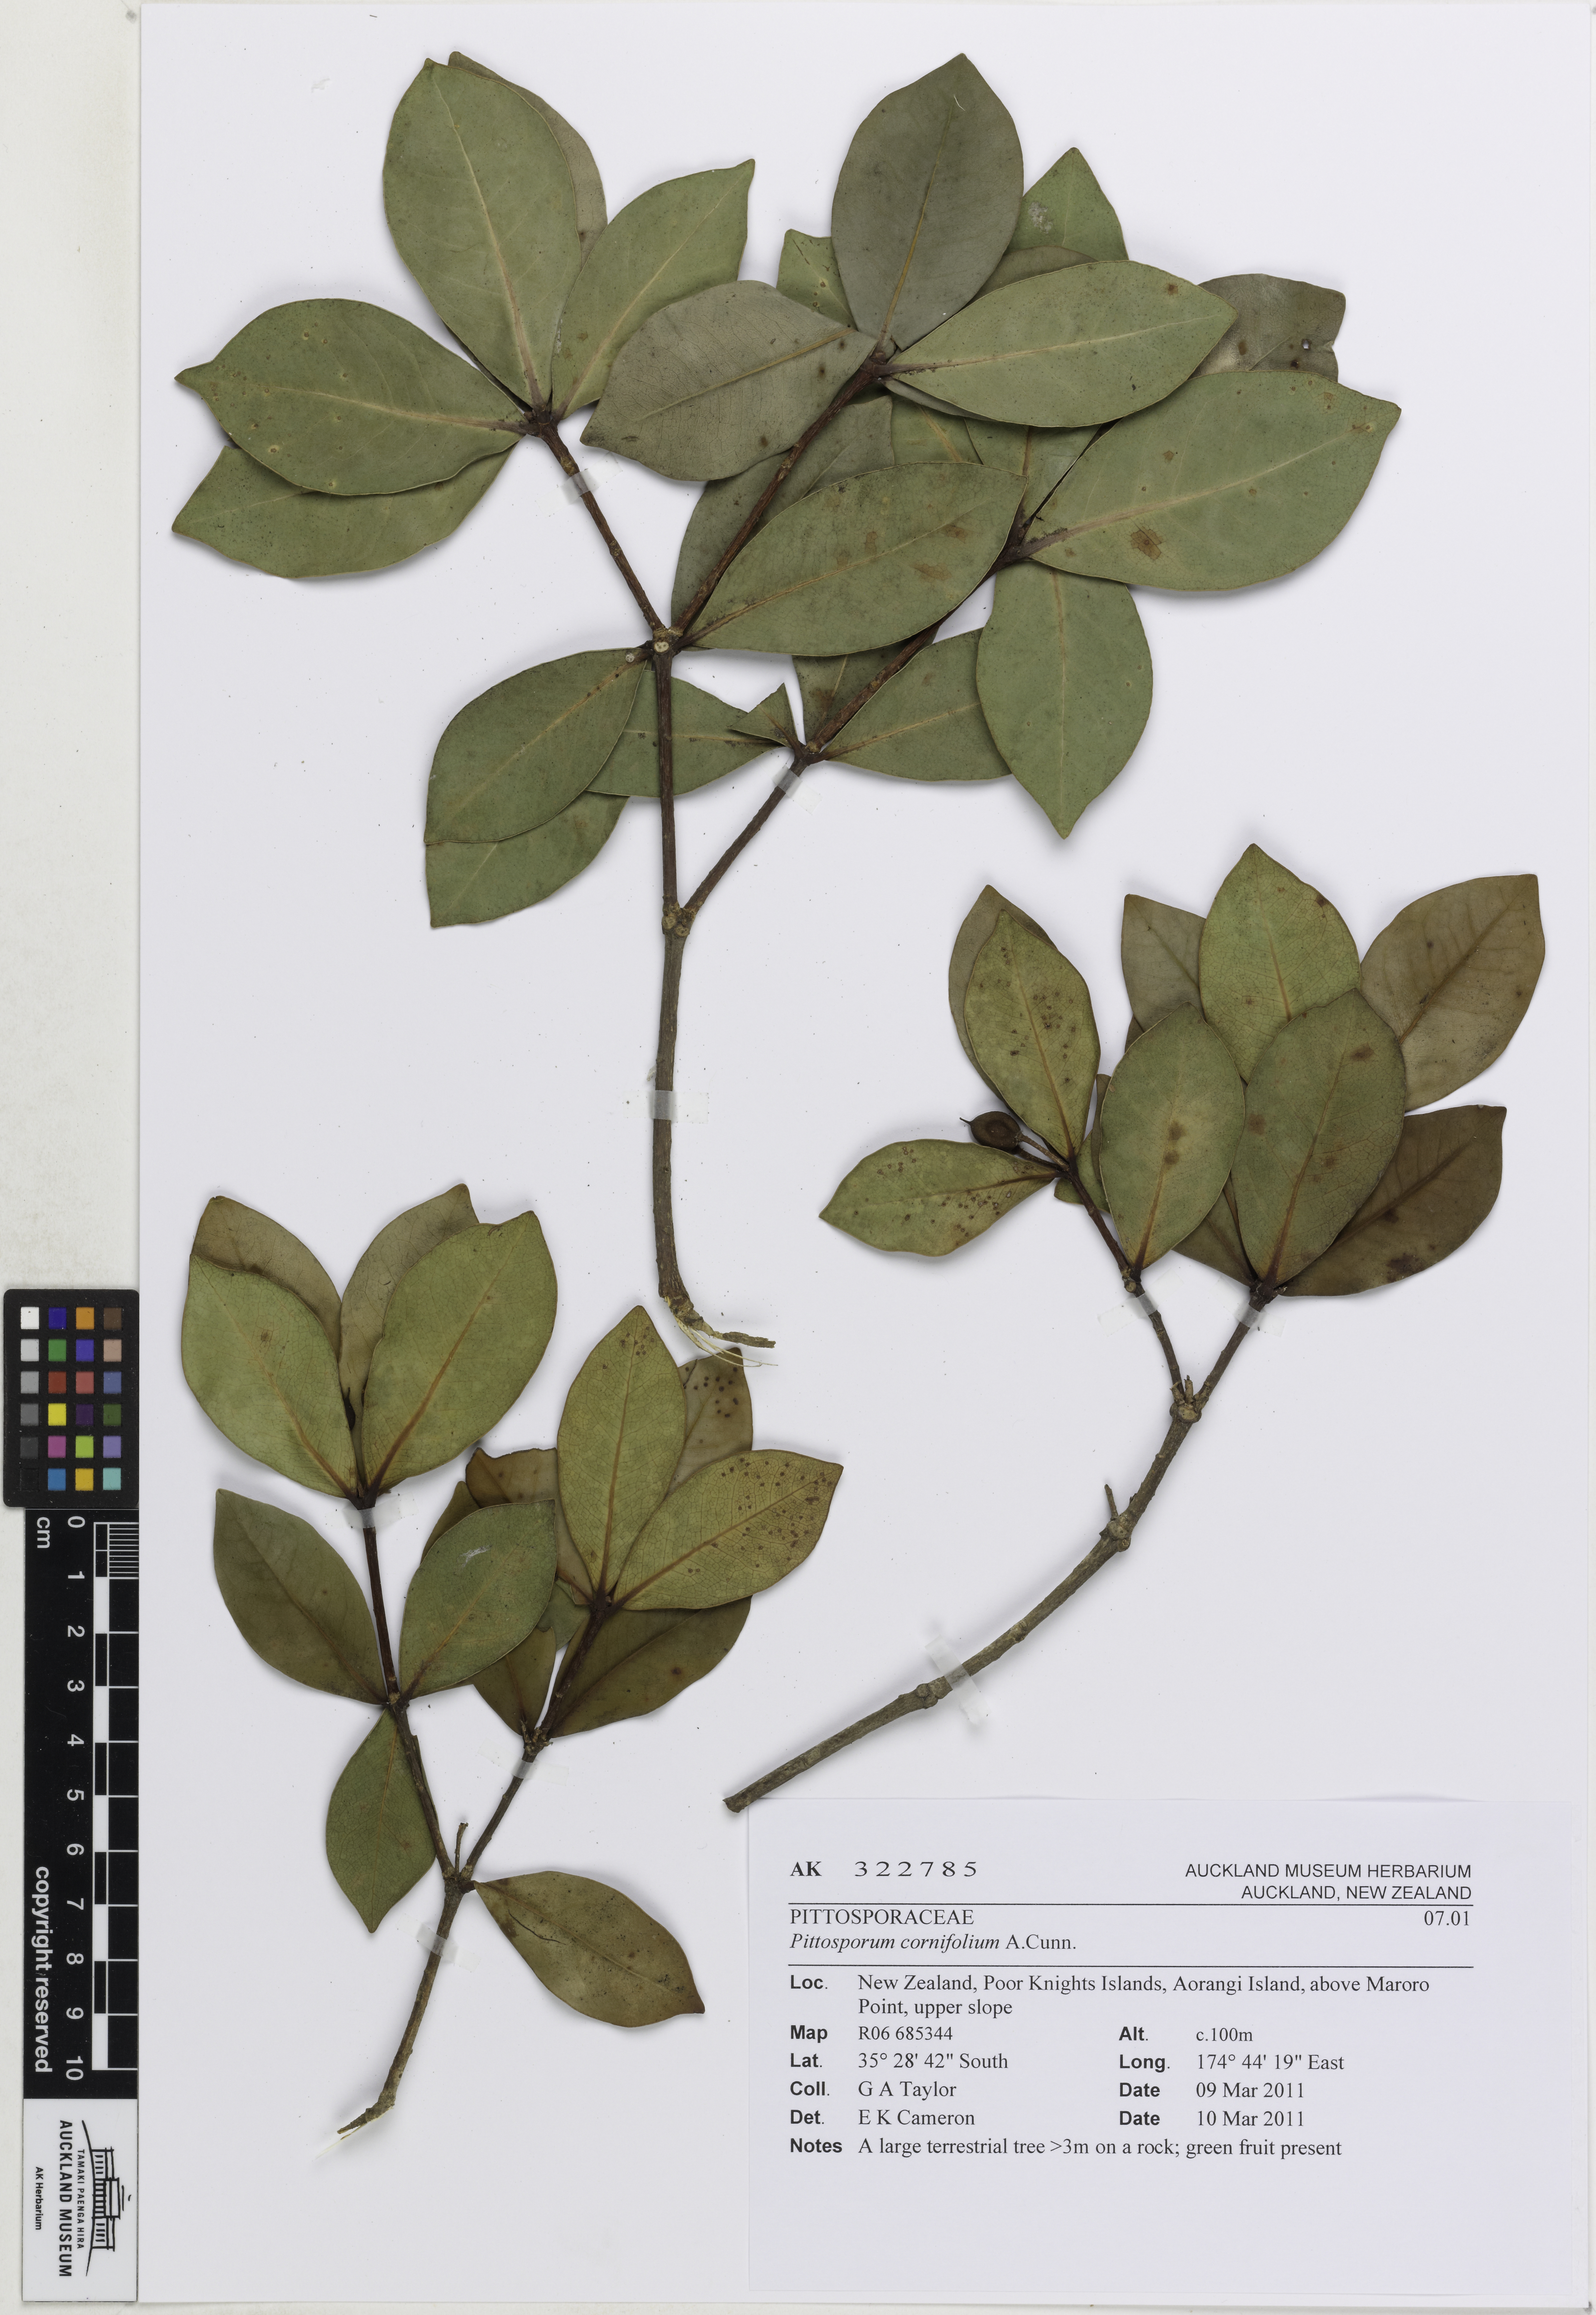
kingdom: Plantae
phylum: Tracheophyta
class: Magnoliopsida
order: Apiales
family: Pittosporaceae
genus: Pittosporum
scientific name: Pittosporum cornifolium
